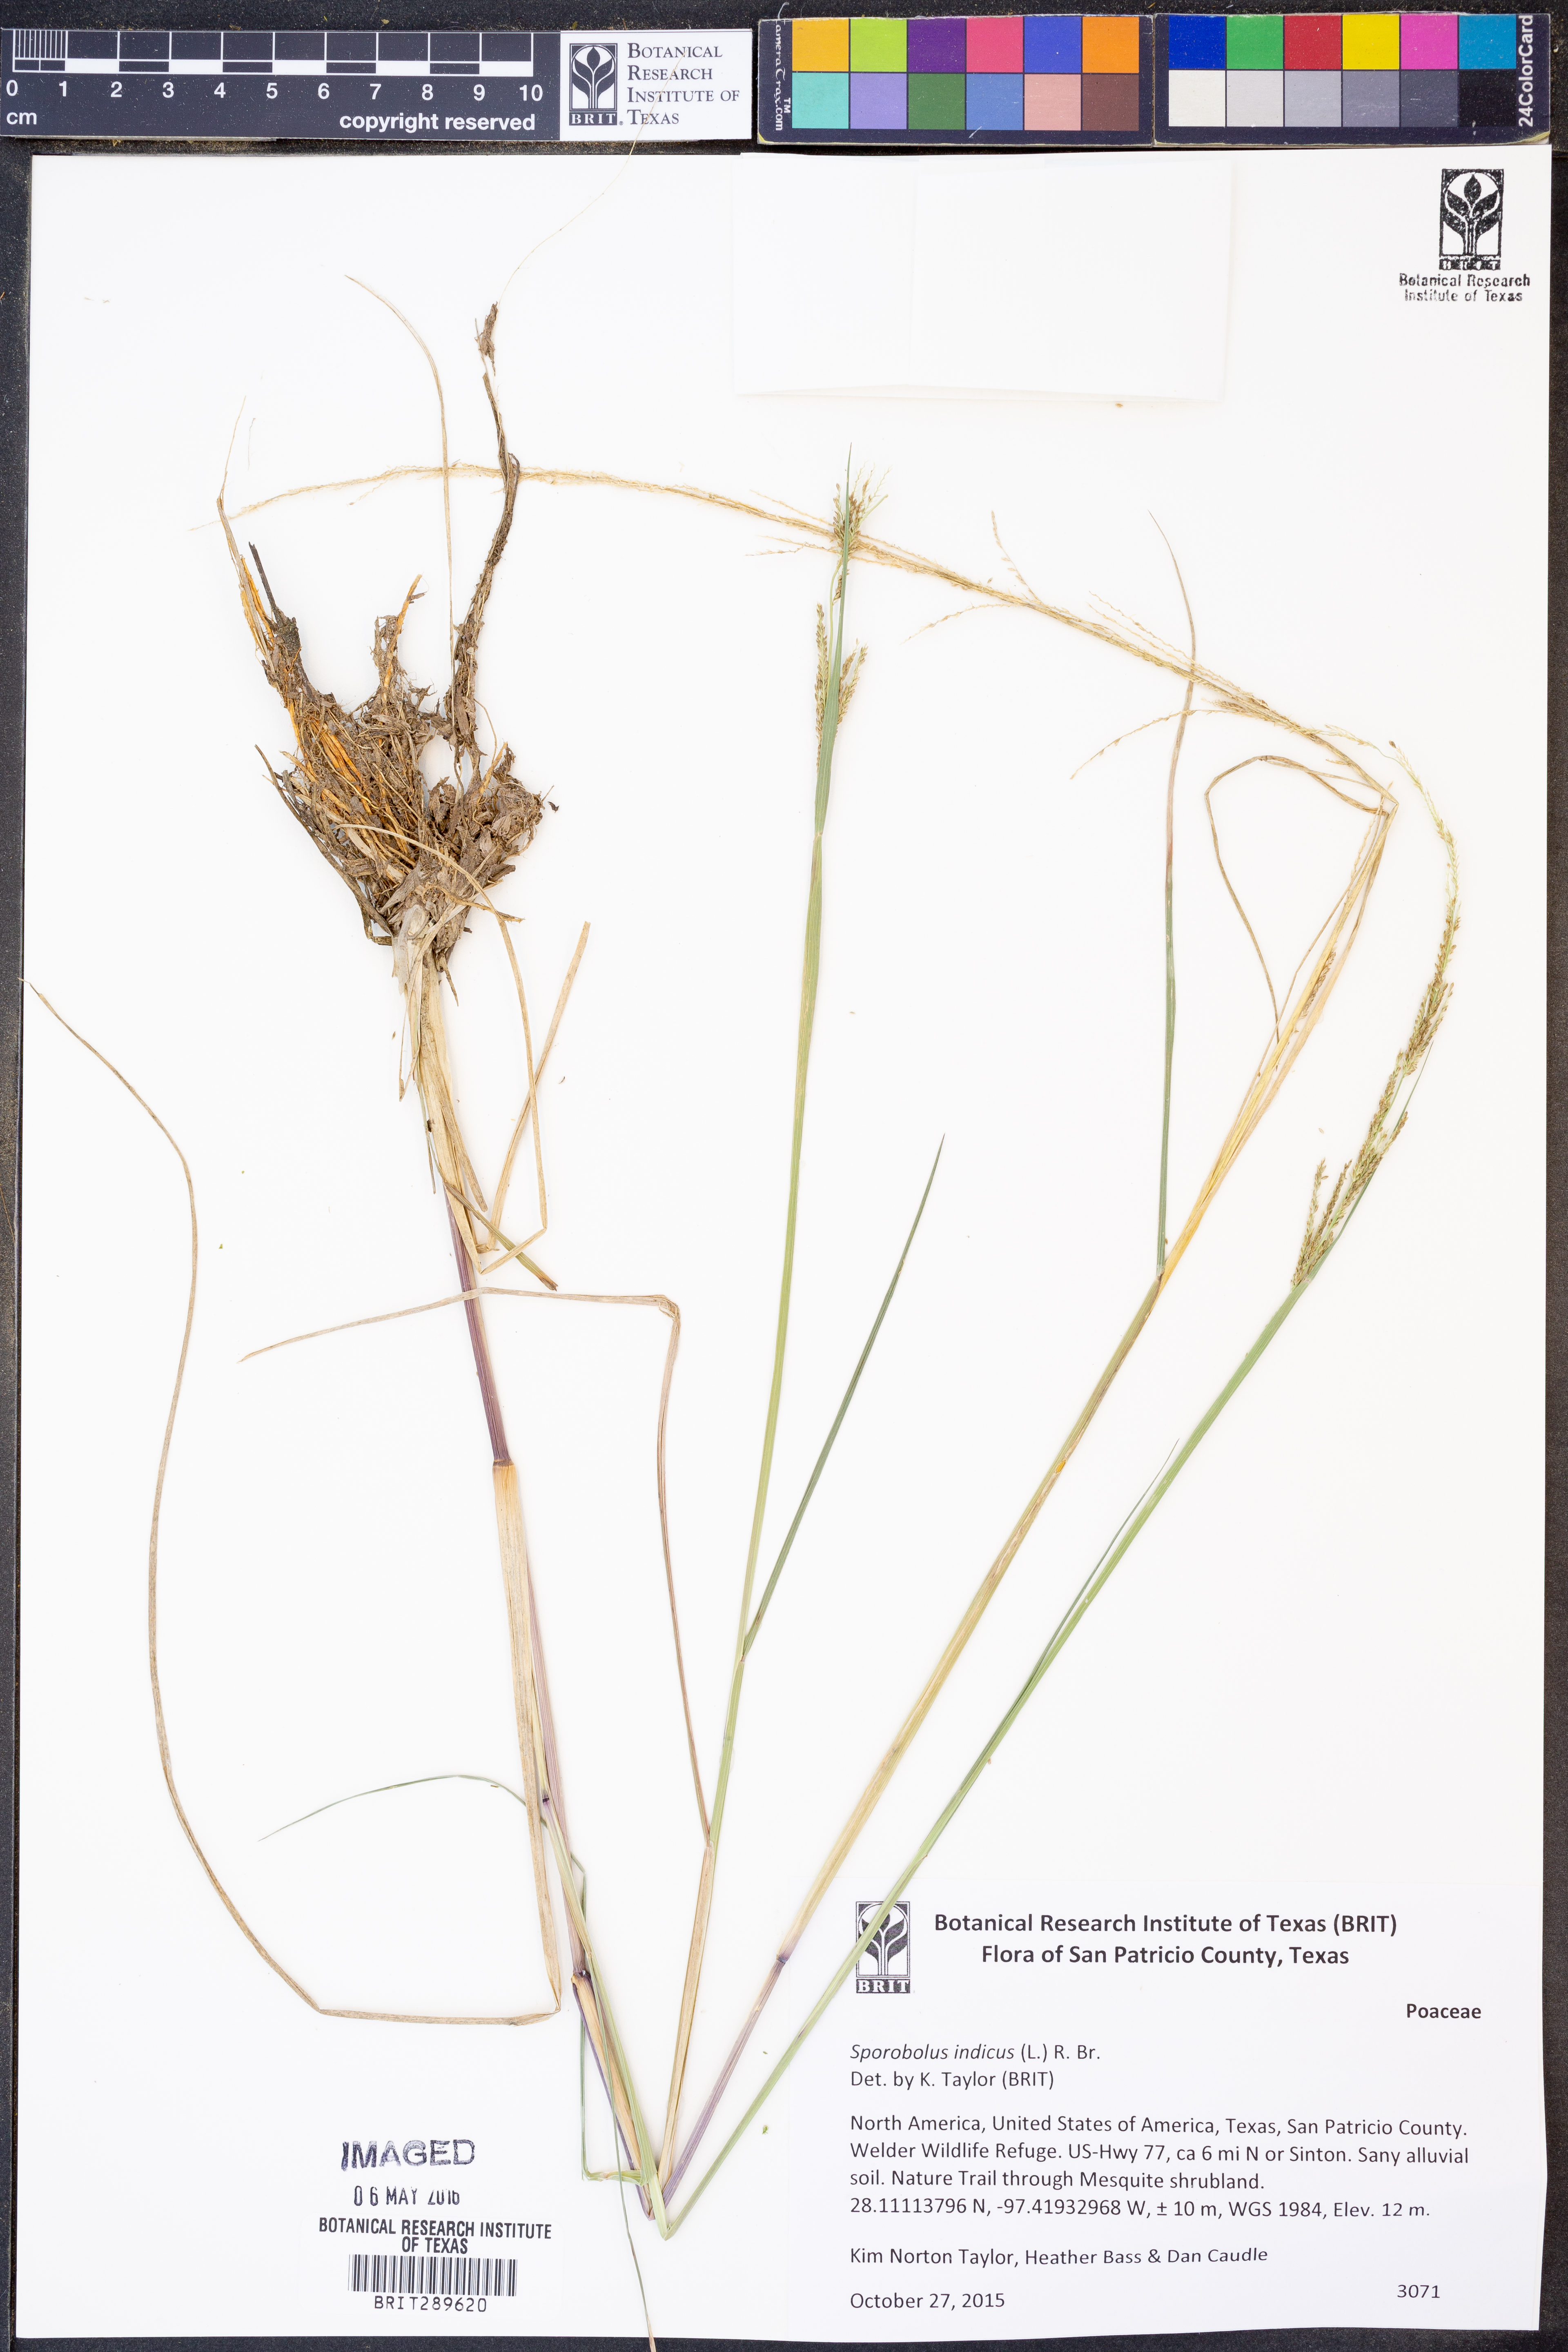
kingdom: Plantae
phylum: Tracheophyta
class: Liliopsida
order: Poales
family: Poaceae
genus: Sporobolus
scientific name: Sporobolus indicus
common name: Smut grass
